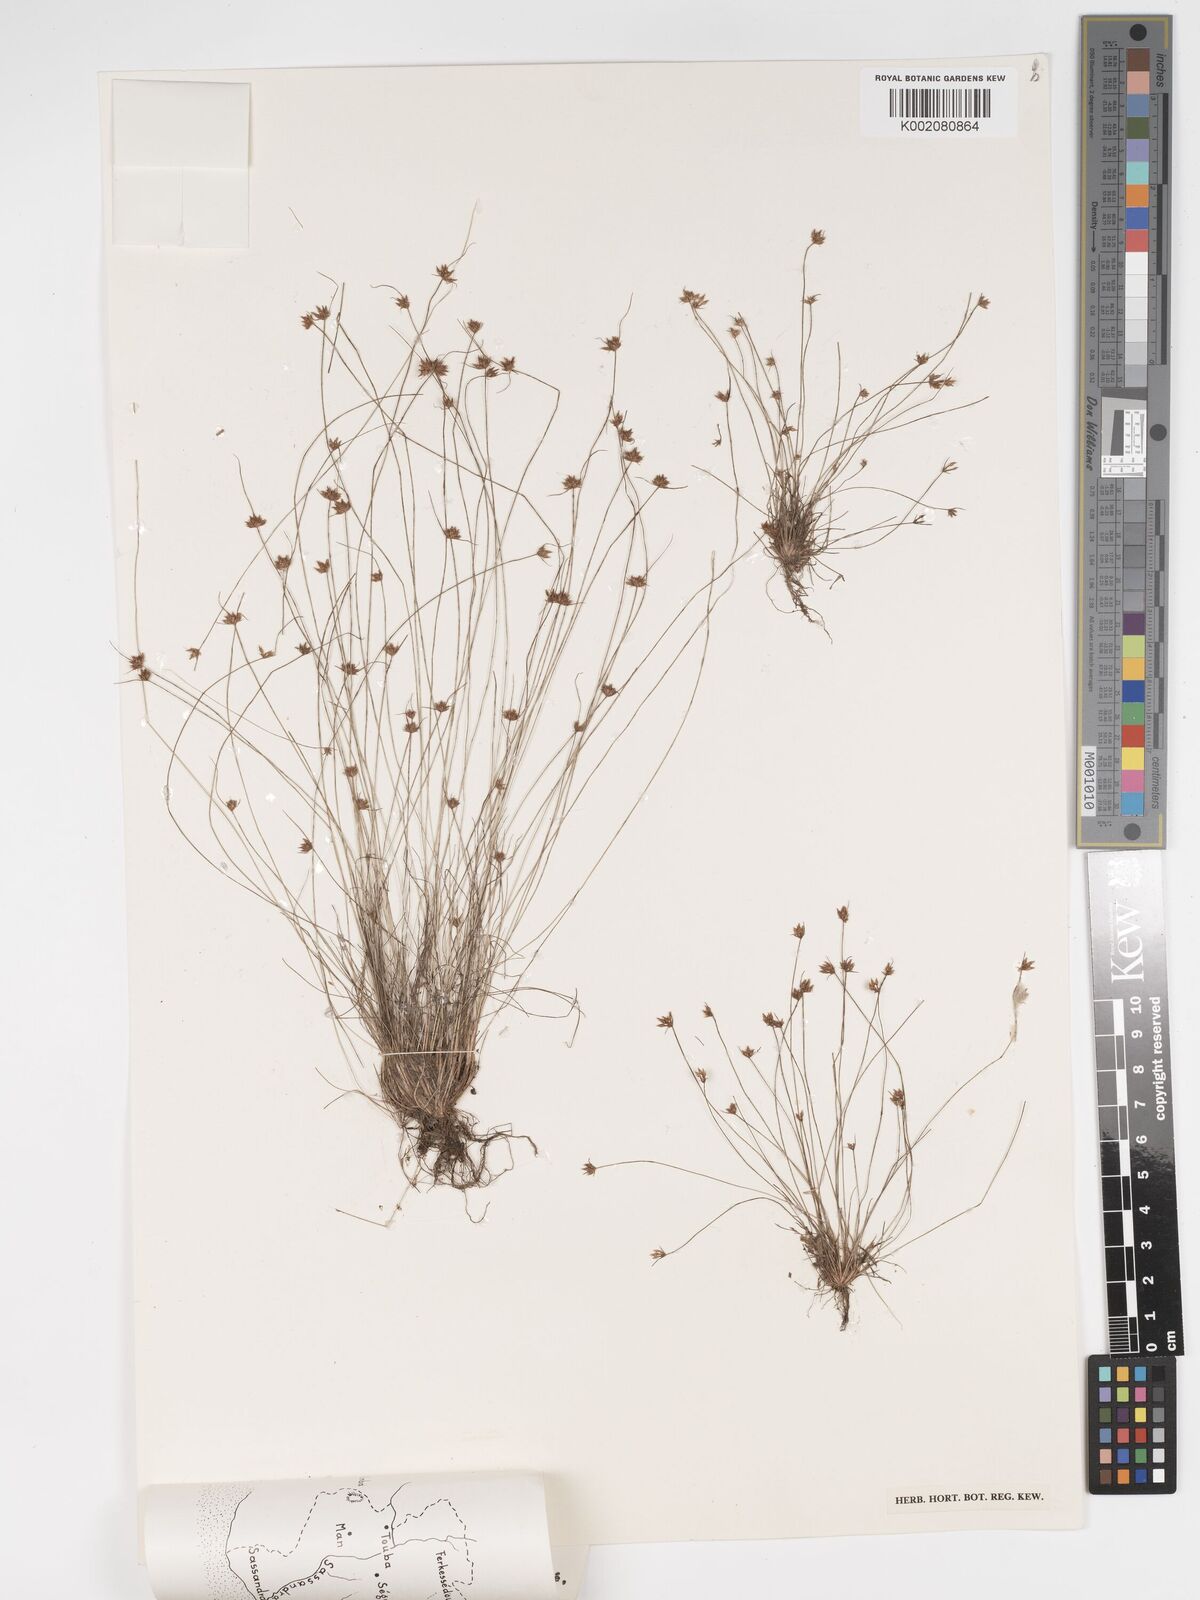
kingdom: Plantae
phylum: Tracheophyta
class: Liliopsida
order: Poales
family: Cyperaceae
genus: Bulbostylis
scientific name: Bulbostylis barbata
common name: Watergrass
